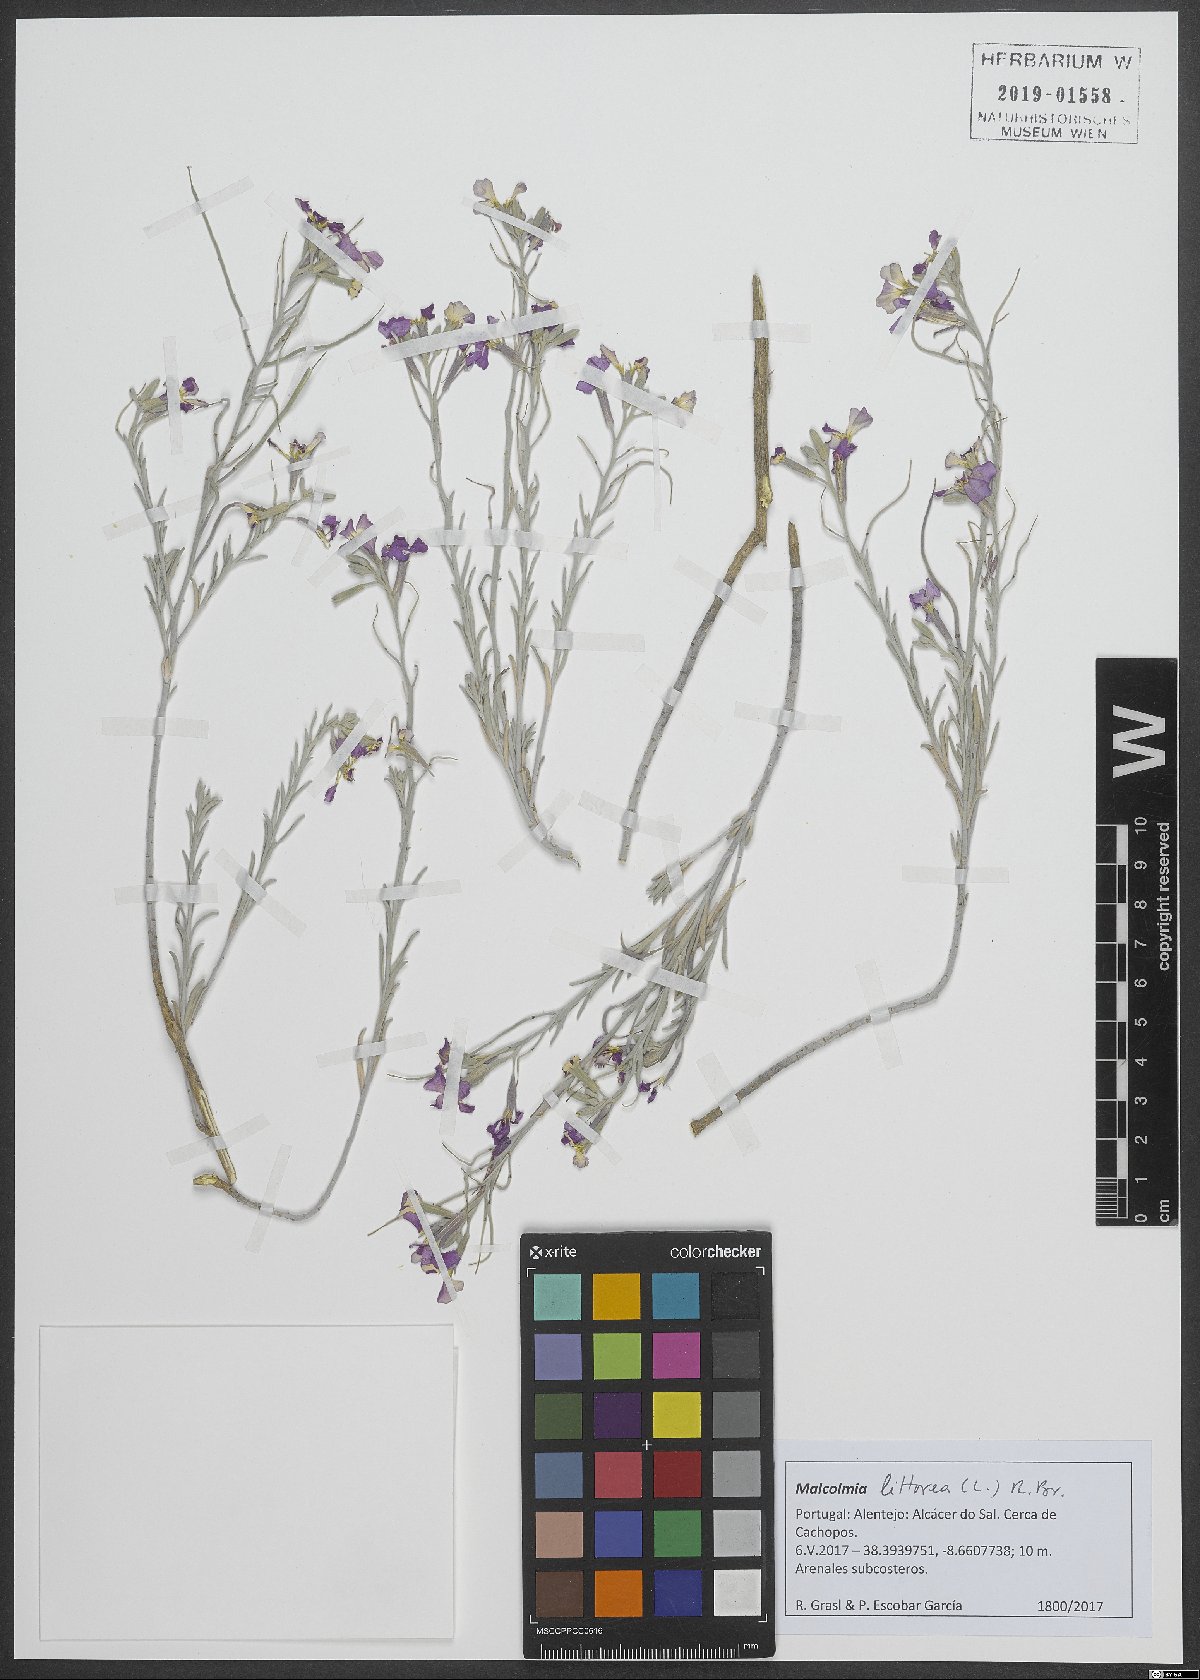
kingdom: Plantae
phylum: Tracheophyta
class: Magnoliopsida
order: Brassicales
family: Brassicaceae
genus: Marcuskochia
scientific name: Marcuskochia littorea
